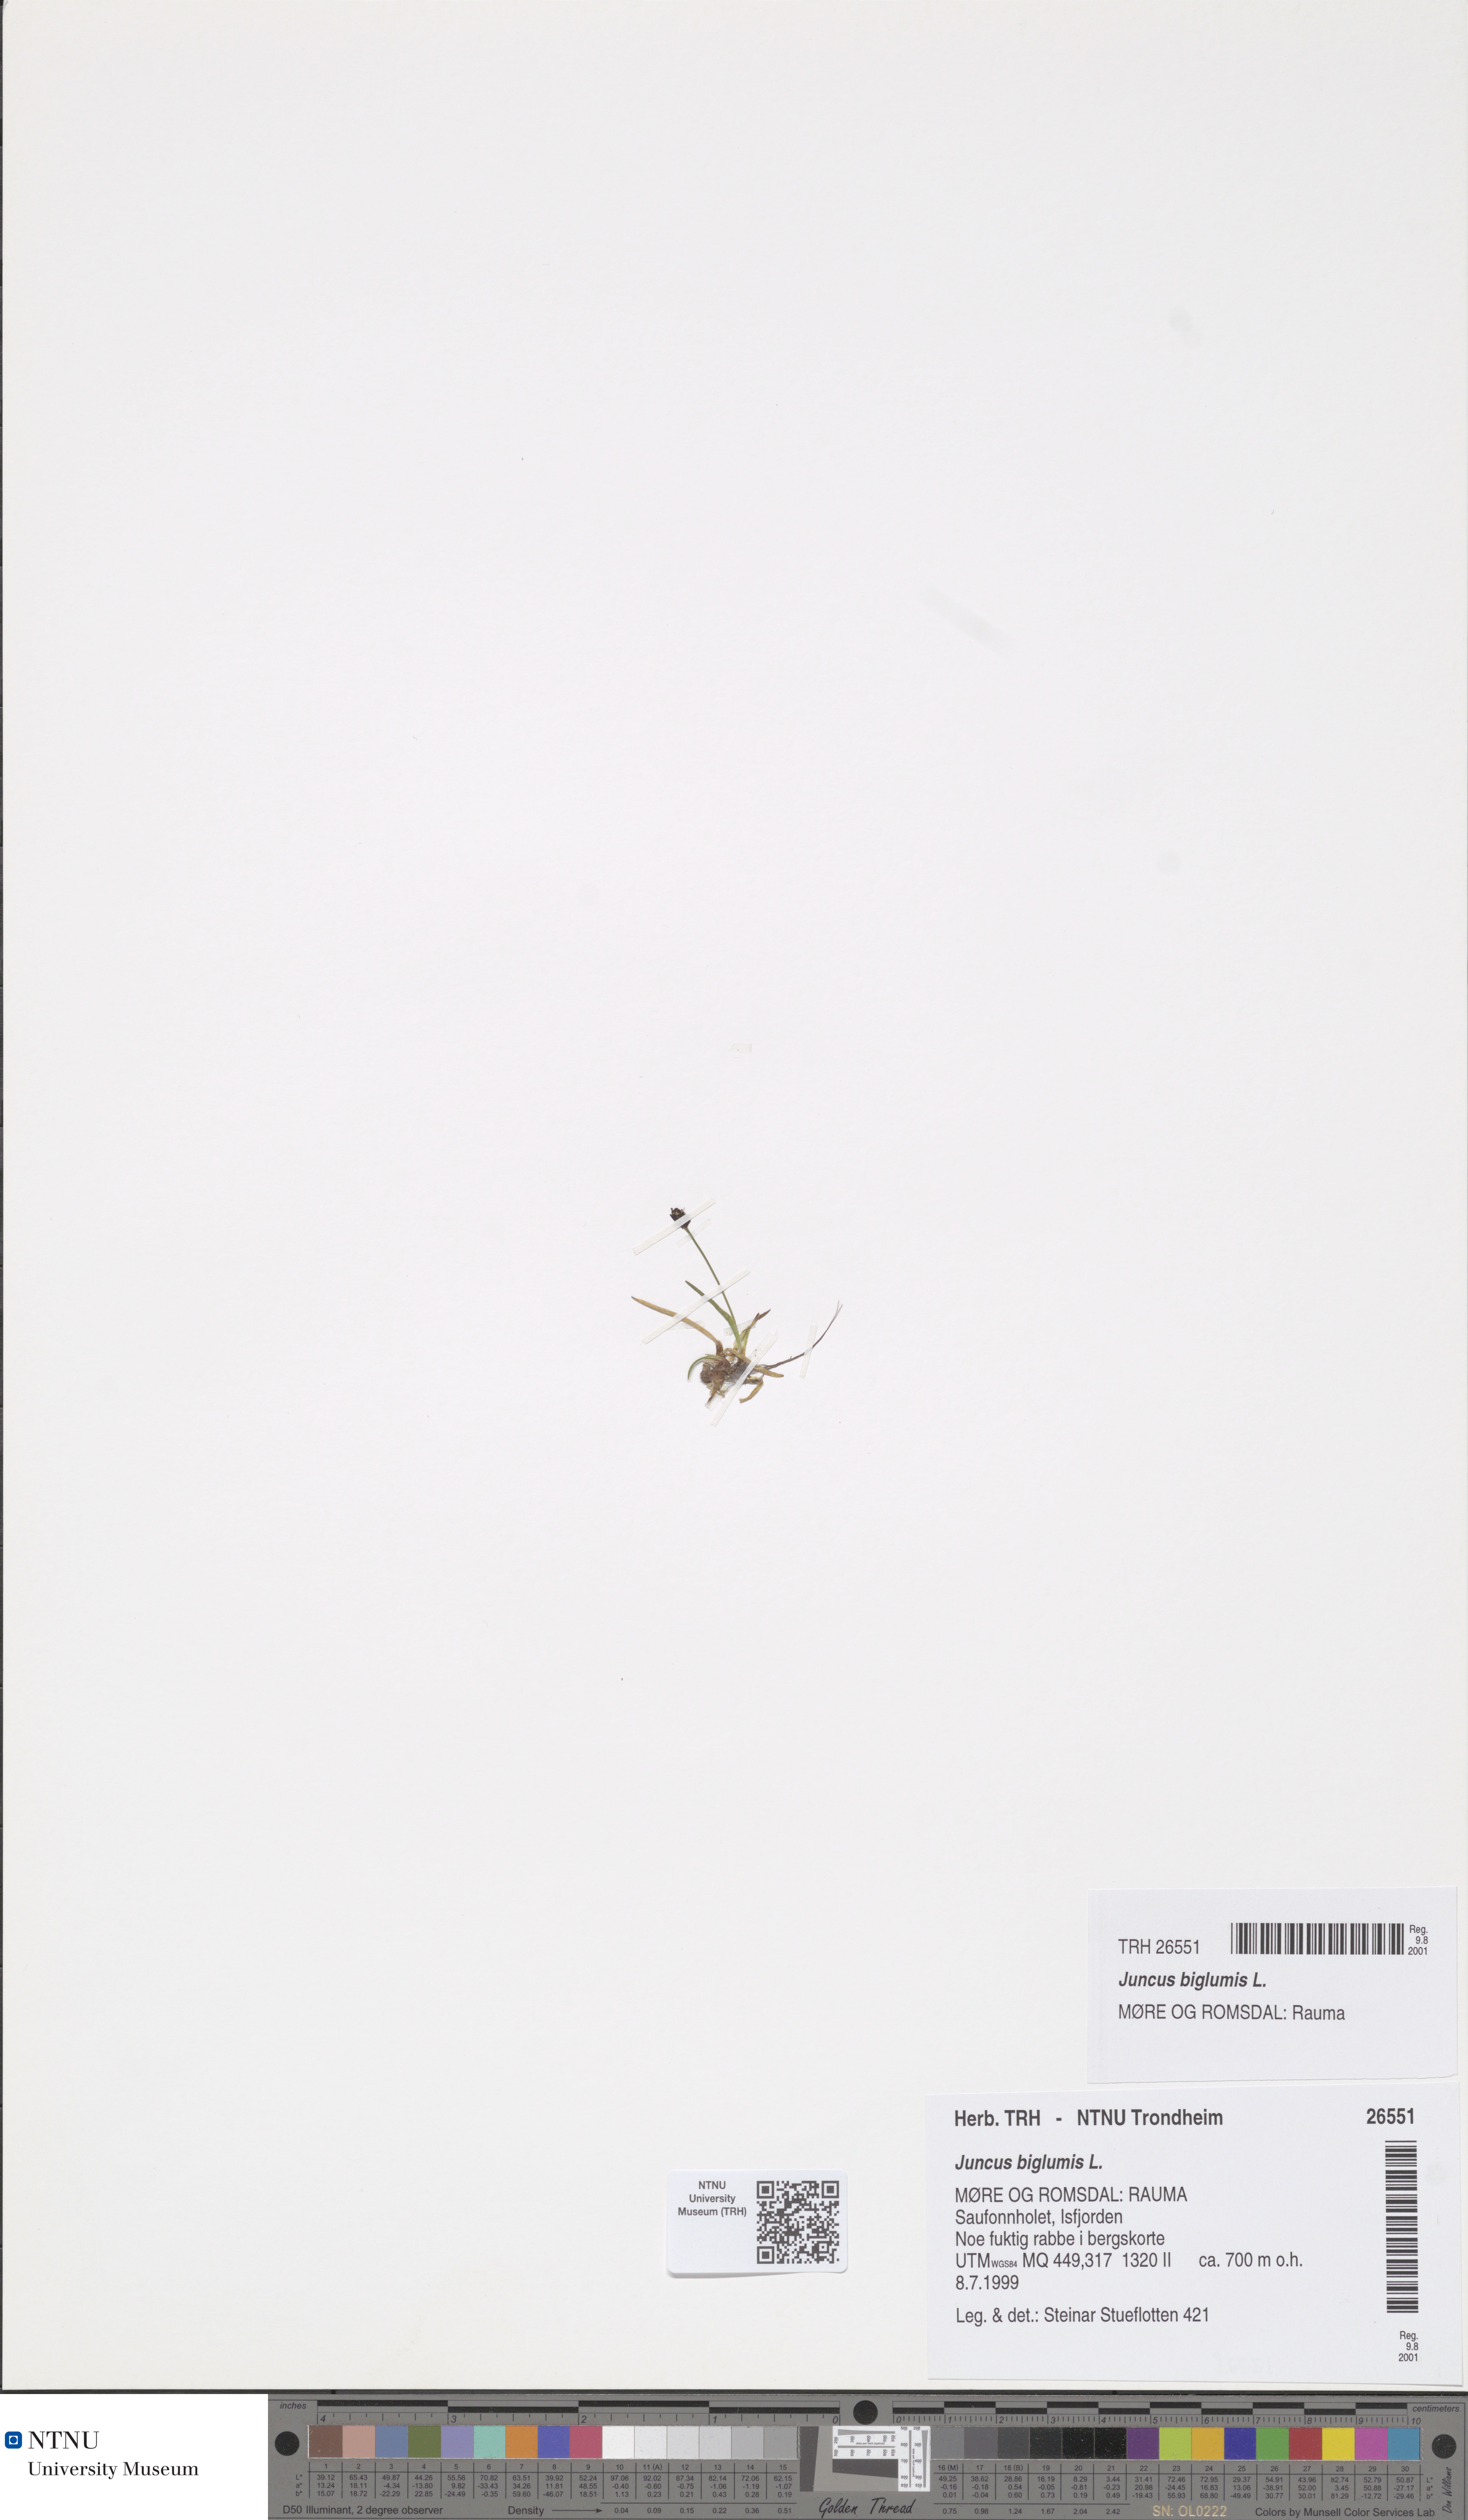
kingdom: Plantae
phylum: Tracheophyta
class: Liliopsida
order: Poales
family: Juncaceae
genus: Juncus
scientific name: Juncus biglumis
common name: Two-flowered rush
